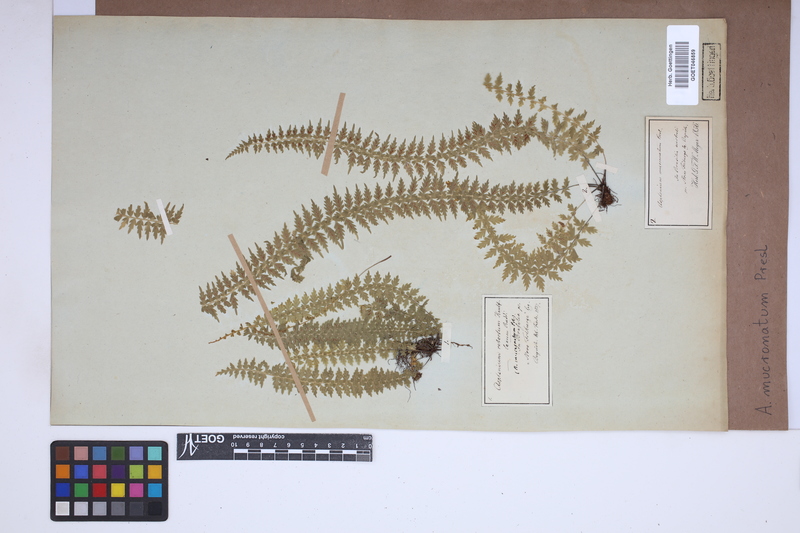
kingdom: Plantae
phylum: Tracheophyta
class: Polypodiopsida
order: Polypodiales
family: Aspleniaceae
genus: Asplenium
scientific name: Asplenium mucronatum
